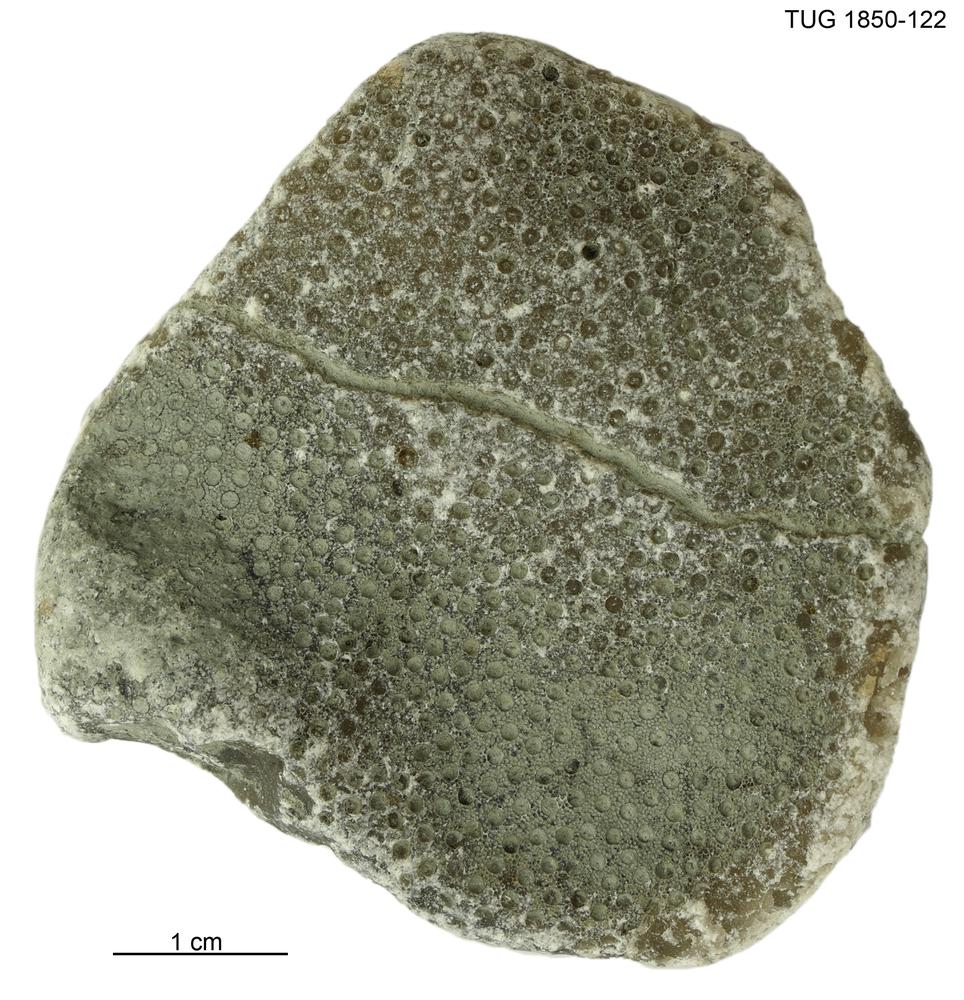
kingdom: Animalia
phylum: Cnidaria
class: Anthozoa
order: Heliolitina
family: Heliolitidae
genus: Heliolites
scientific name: Heliolites
